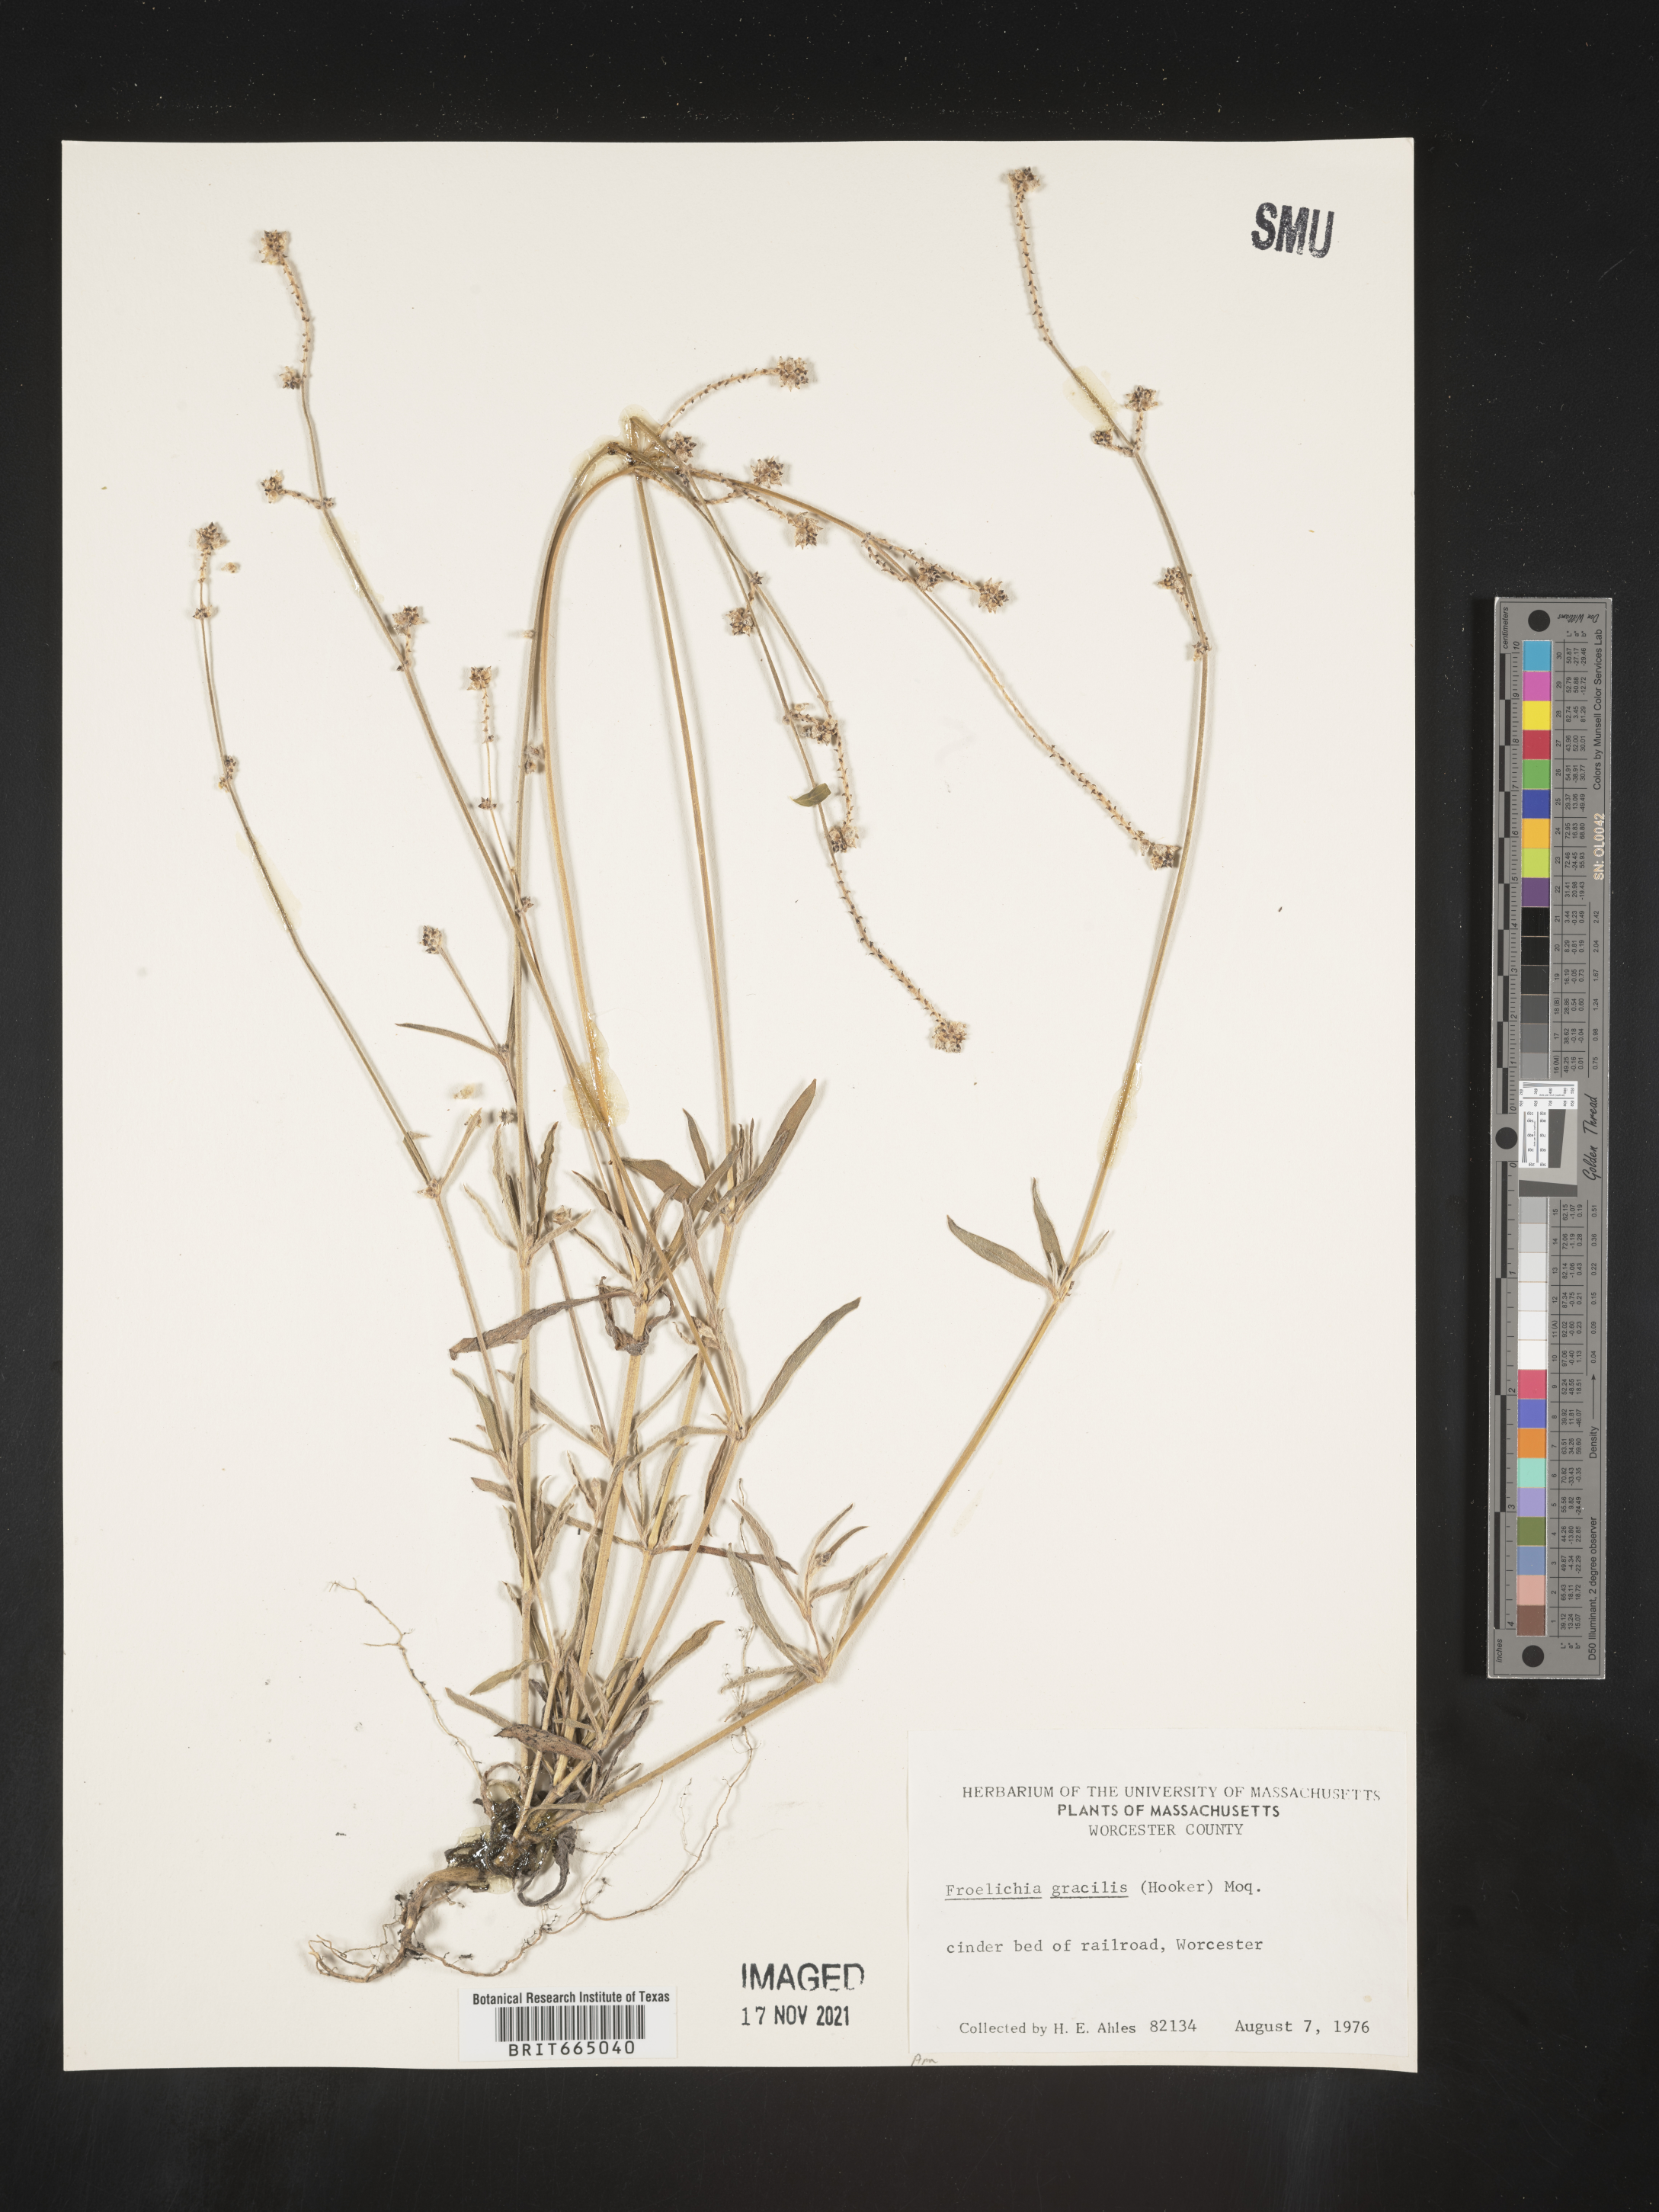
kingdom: Plantae
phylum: Tracheophyta
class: Magnoliopsida
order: Caryophyllales
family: Amaranthaceae
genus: Froelichia
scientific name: Froelichia gracilis
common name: Slender cottonweed
